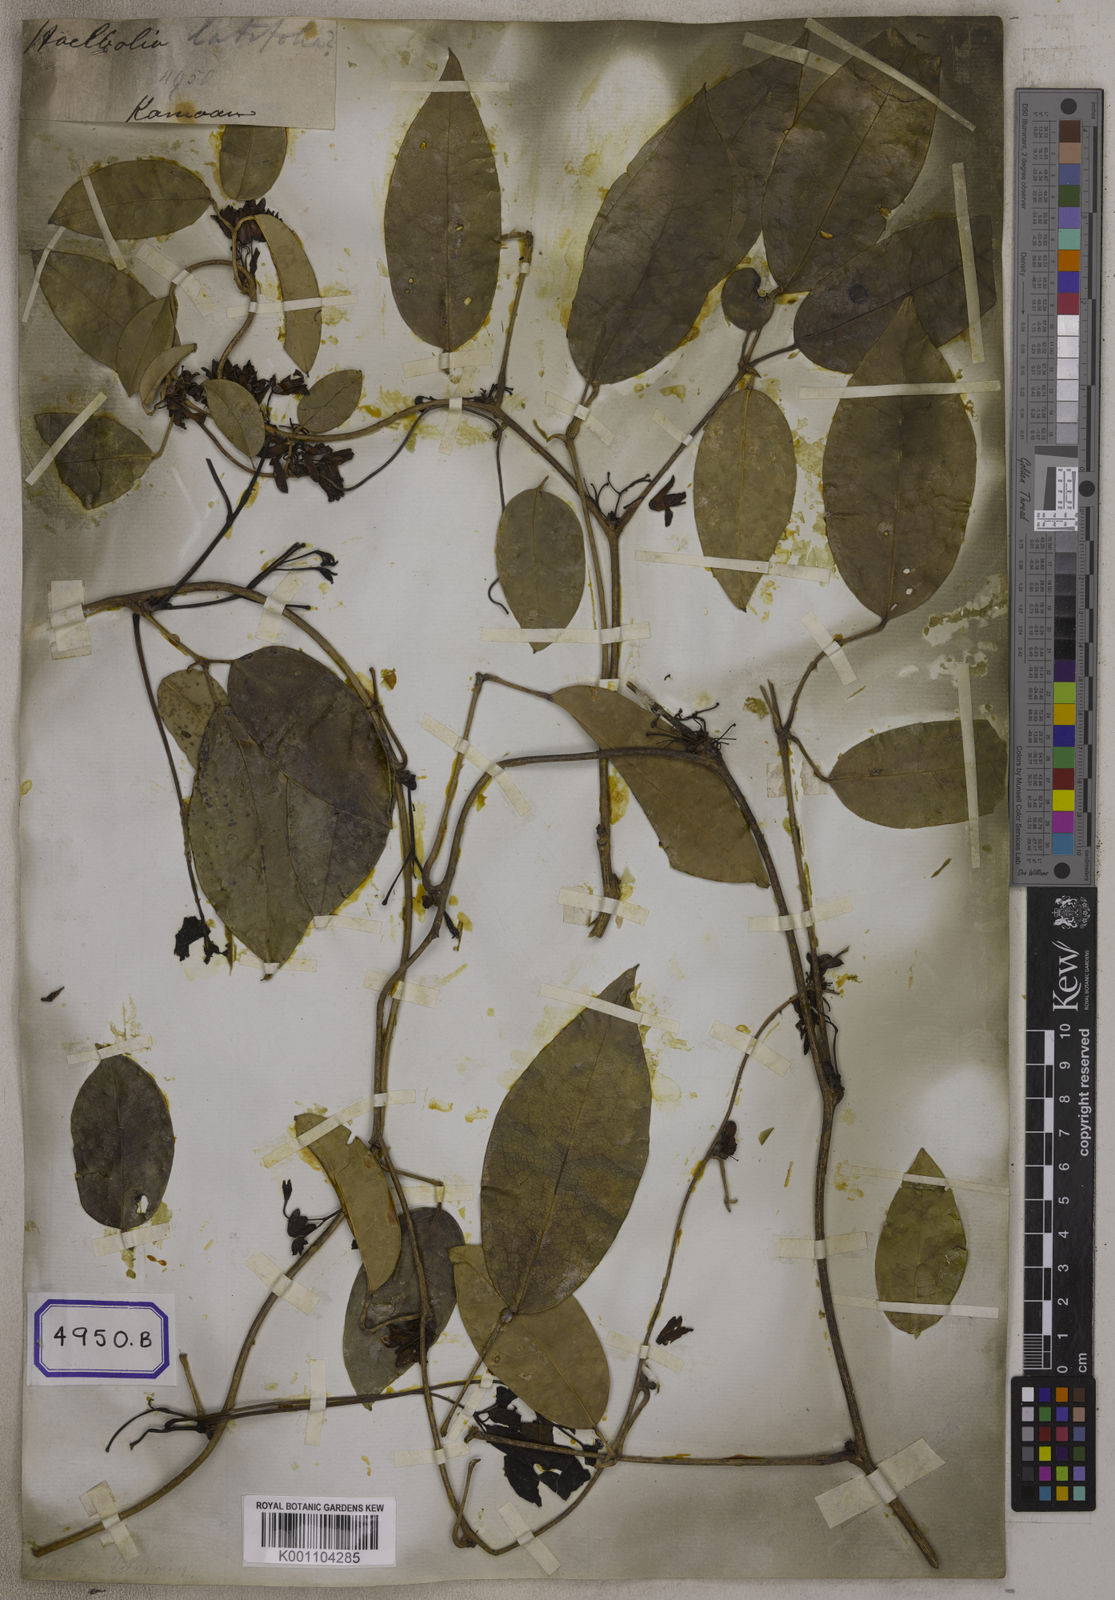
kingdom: Plantae
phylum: Tracheophyta
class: Magnoliopsida
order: Ranunculales
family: Lardizabalaceae
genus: Stauntonia
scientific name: Stauntonia latifolia
